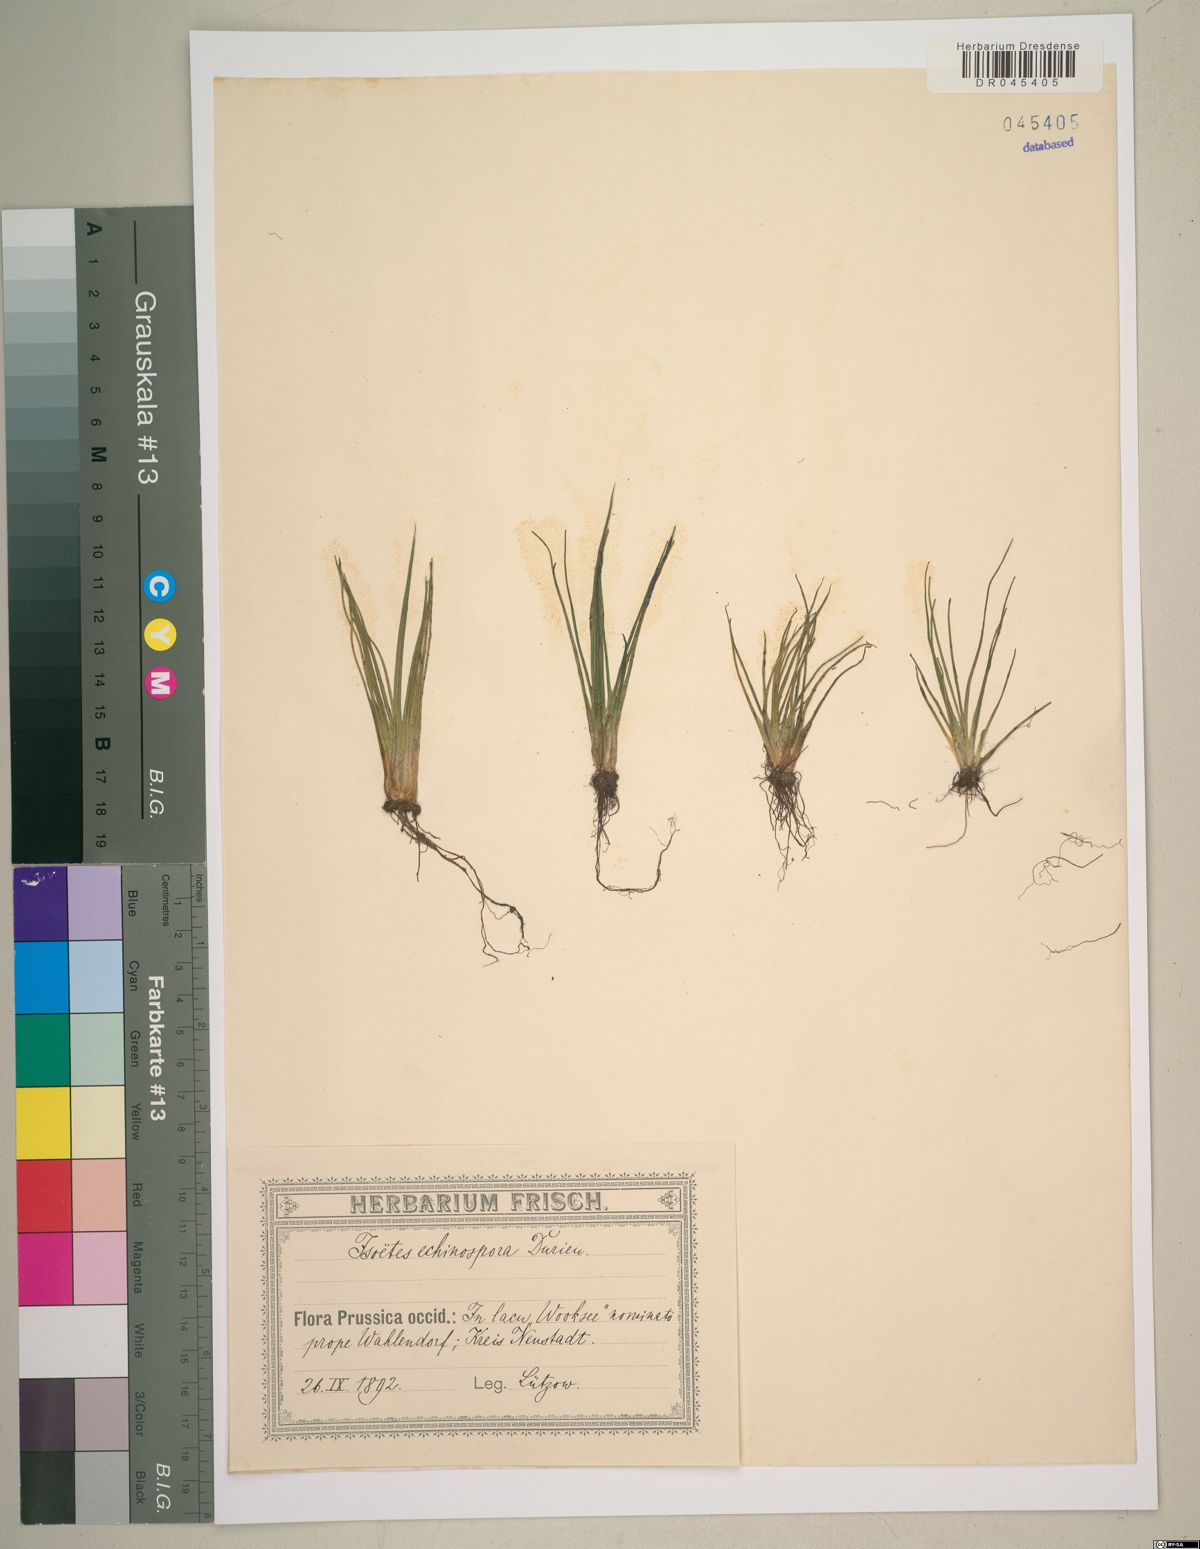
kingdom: Plantae
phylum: Tracheophyta
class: Lycopodiopsida
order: Isoetales
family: Isoetaceae
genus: Isoetes
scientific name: Isoetes echinospora
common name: Spring quillwort
